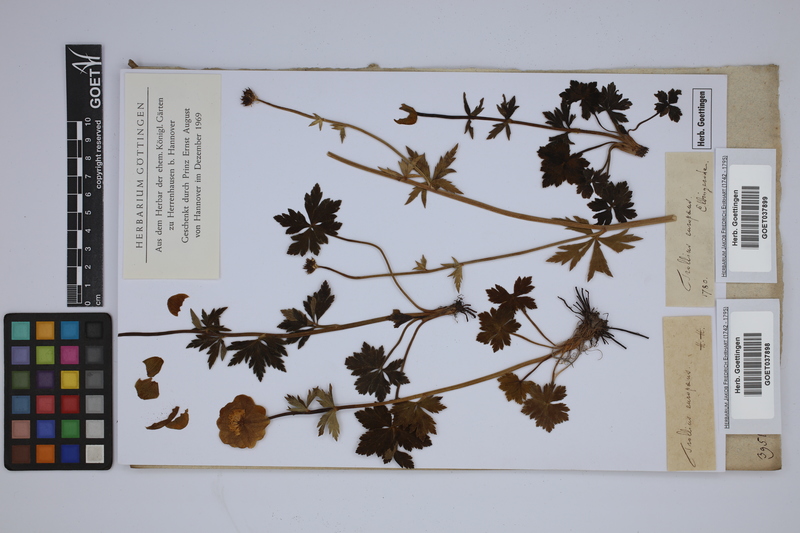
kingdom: Plantae
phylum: Tracheophyta
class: Magnoliopsida
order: Ranunculales
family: Ranunculaceae
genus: Trollius
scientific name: Trollius europaeus
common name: European globeflower
